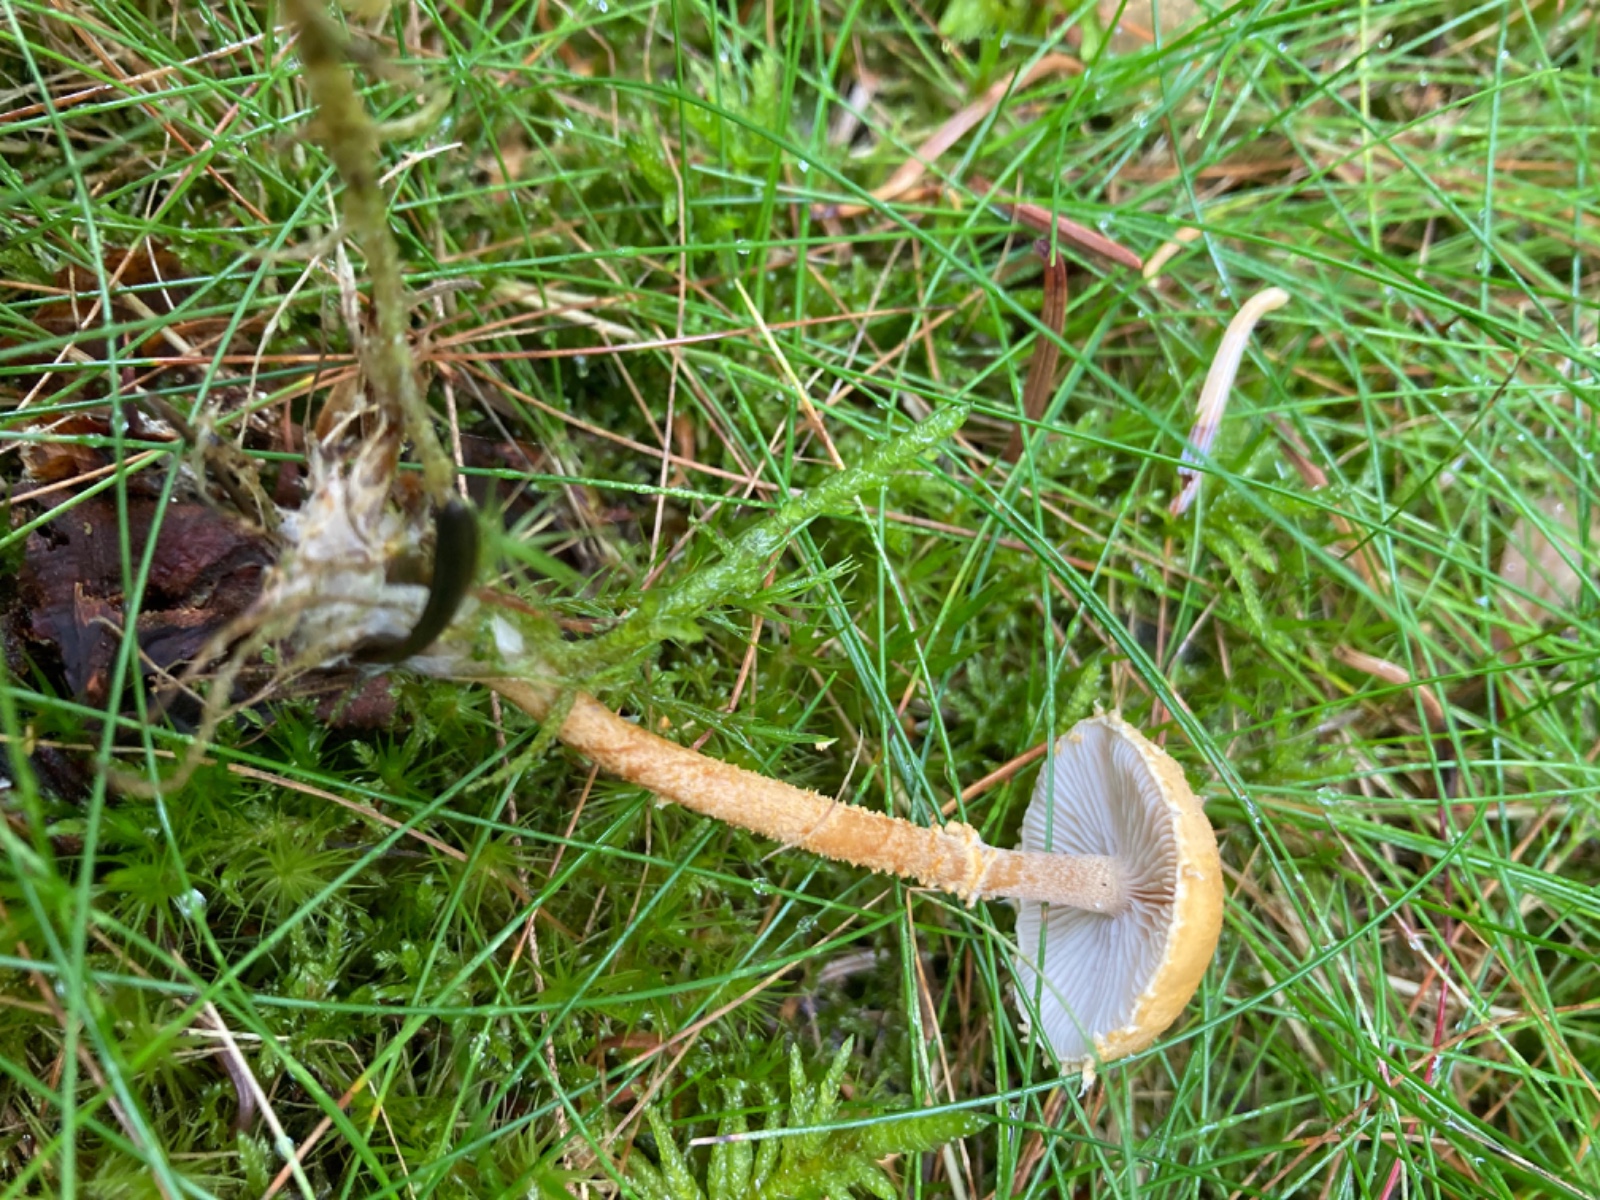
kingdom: Fungi
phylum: Basidiomycota
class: Agaricomycetes
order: Agaricales
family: Tricholomataceae
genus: Cystoderma
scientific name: Cystoderma amianthinum
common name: okkergul grynhat
